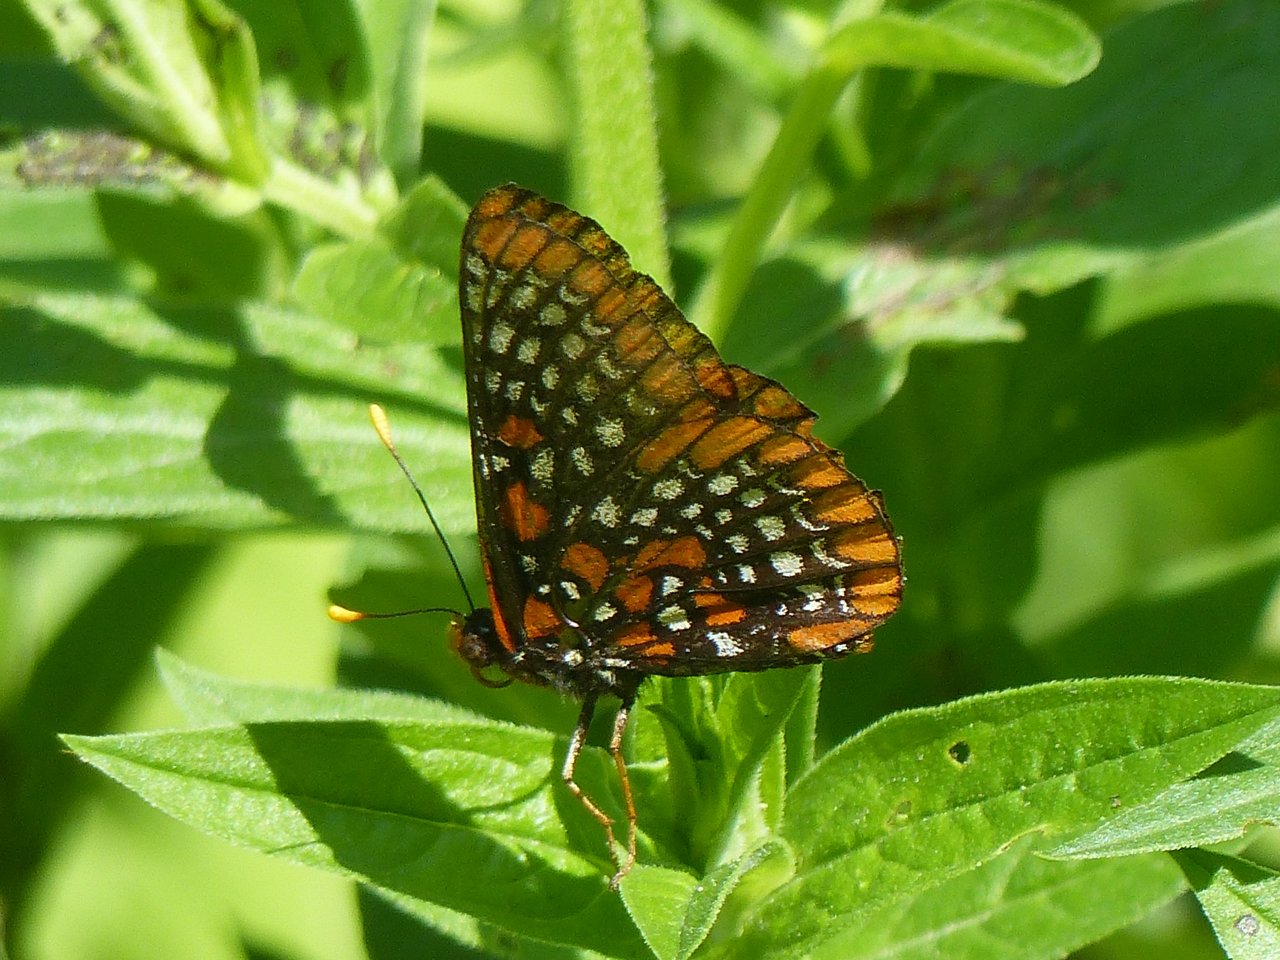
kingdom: Animalia
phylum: Arthropoda
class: Insecta
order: Lepidoptera
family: Nymphalidae
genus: Euphydryas
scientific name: Euphydryas phaeton
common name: Baltimore Checkerspot
